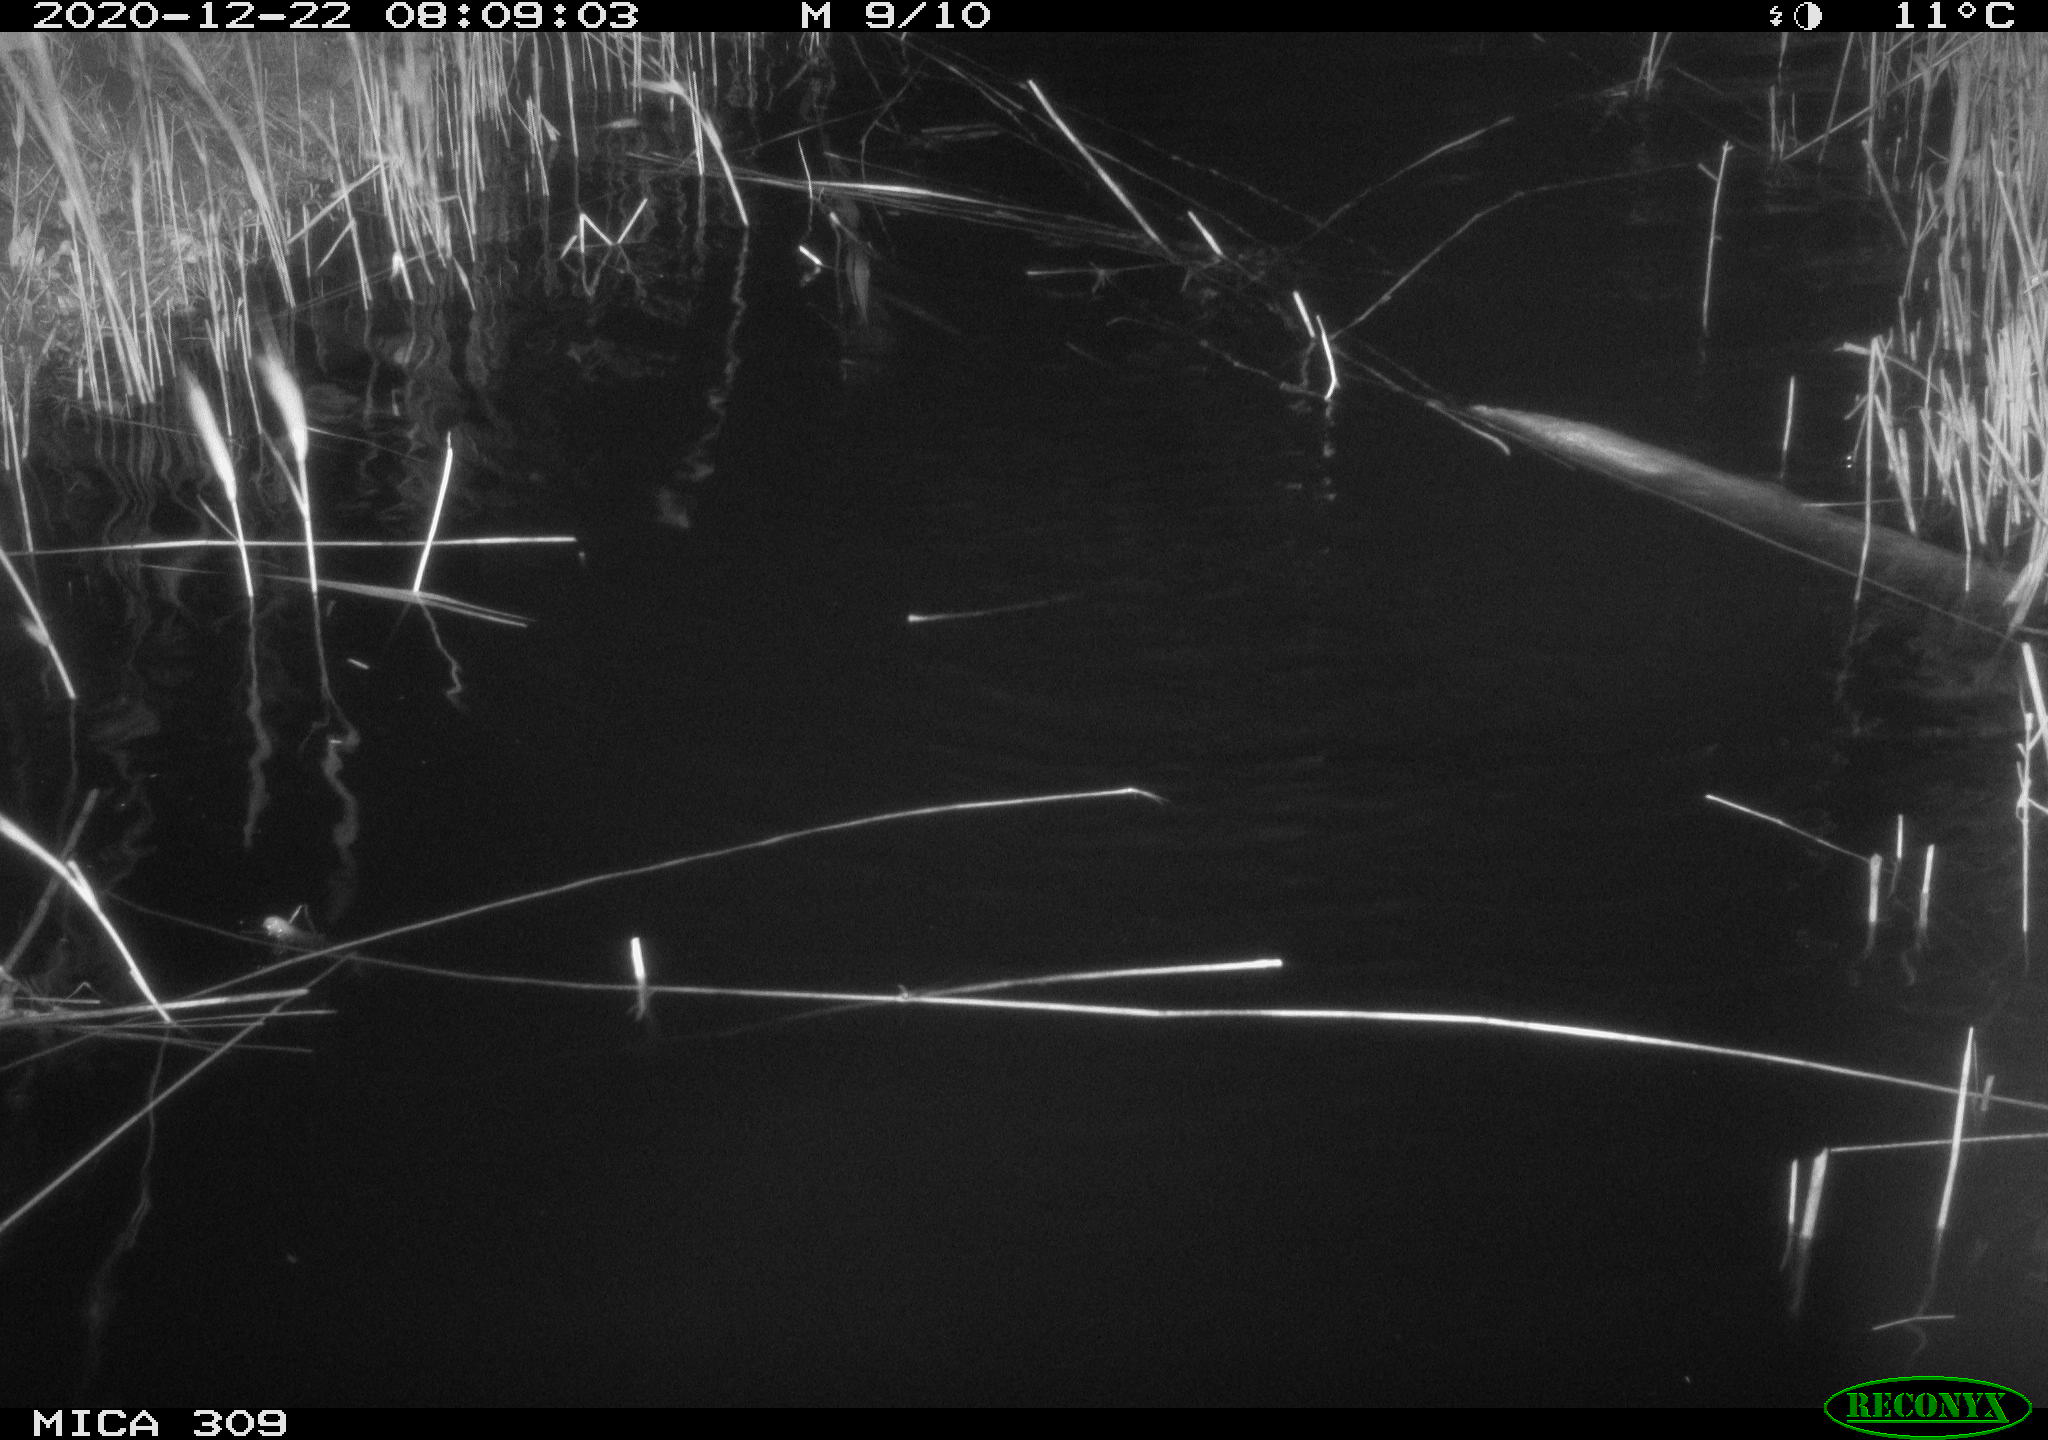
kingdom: Animalia
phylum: Chordata
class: Aves
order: Podicipediformes
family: Podicipedidae
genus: Tachybaptus
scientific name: Tachybaptus ruficollis
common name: Little grebe
